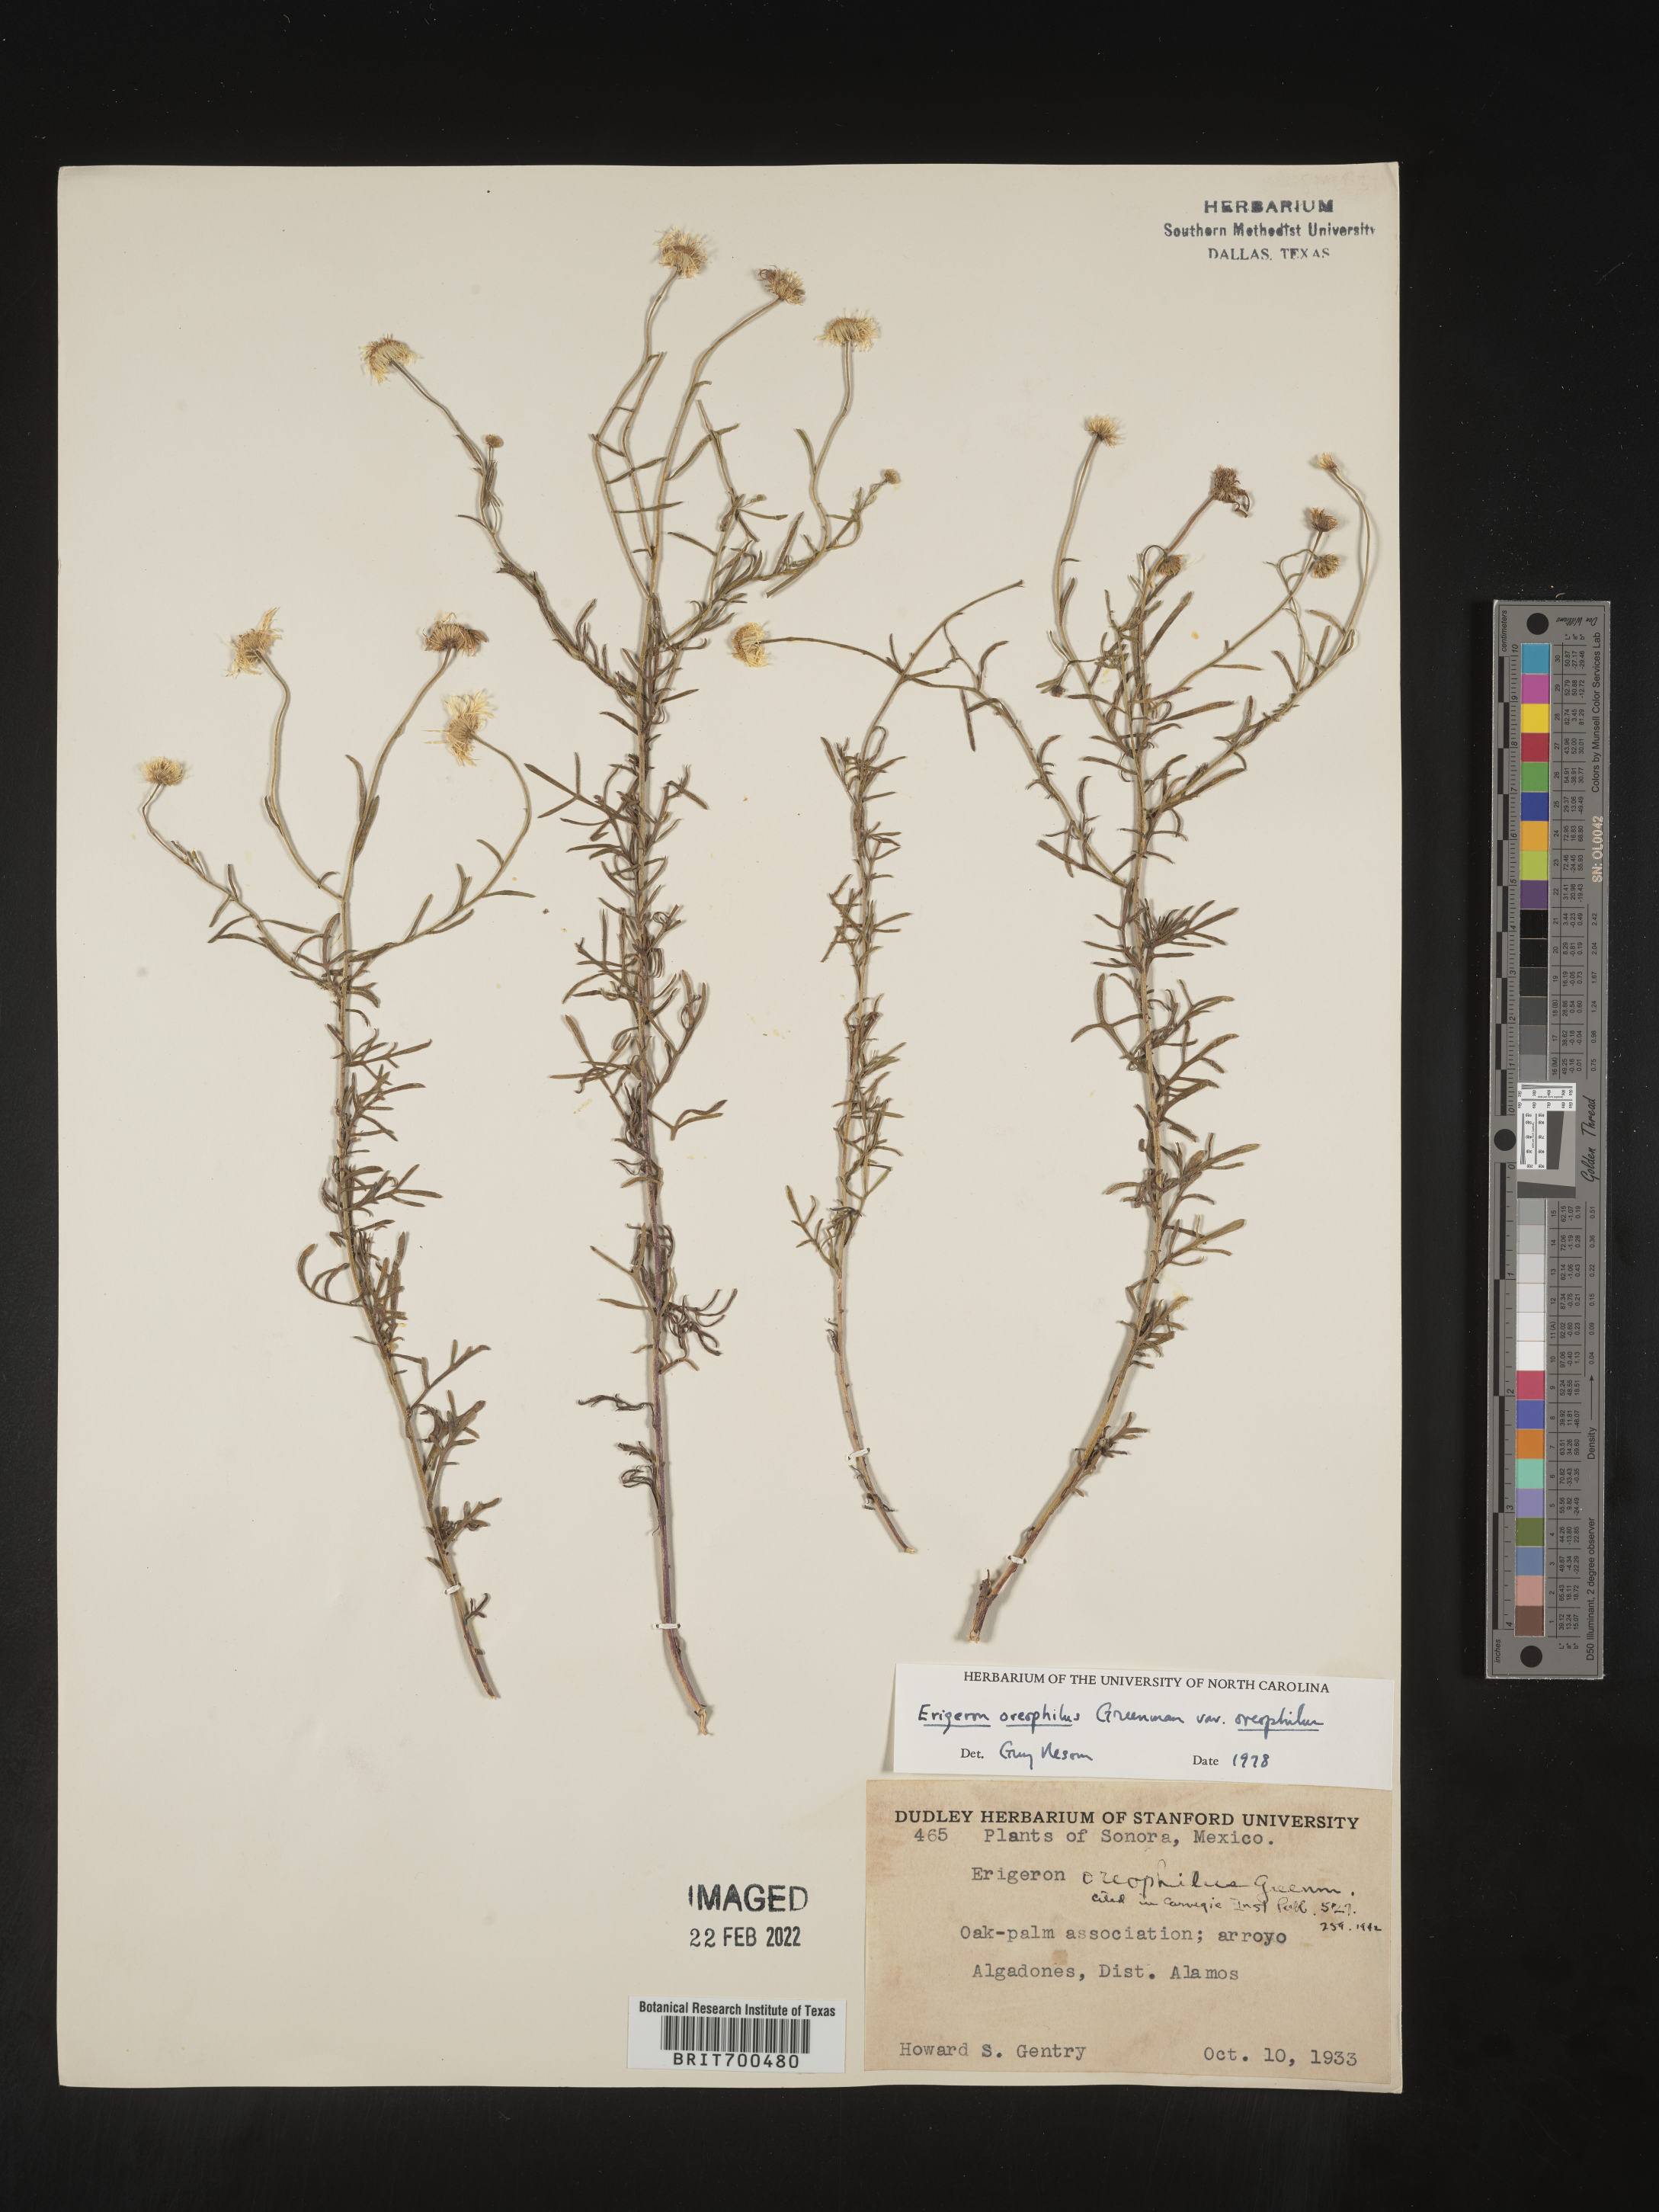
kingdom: Plantae
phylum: Tracheophyta
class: Magnoliopsida
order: Asterales
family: Asteraceae
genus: Erigeron
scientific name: Erigeron
